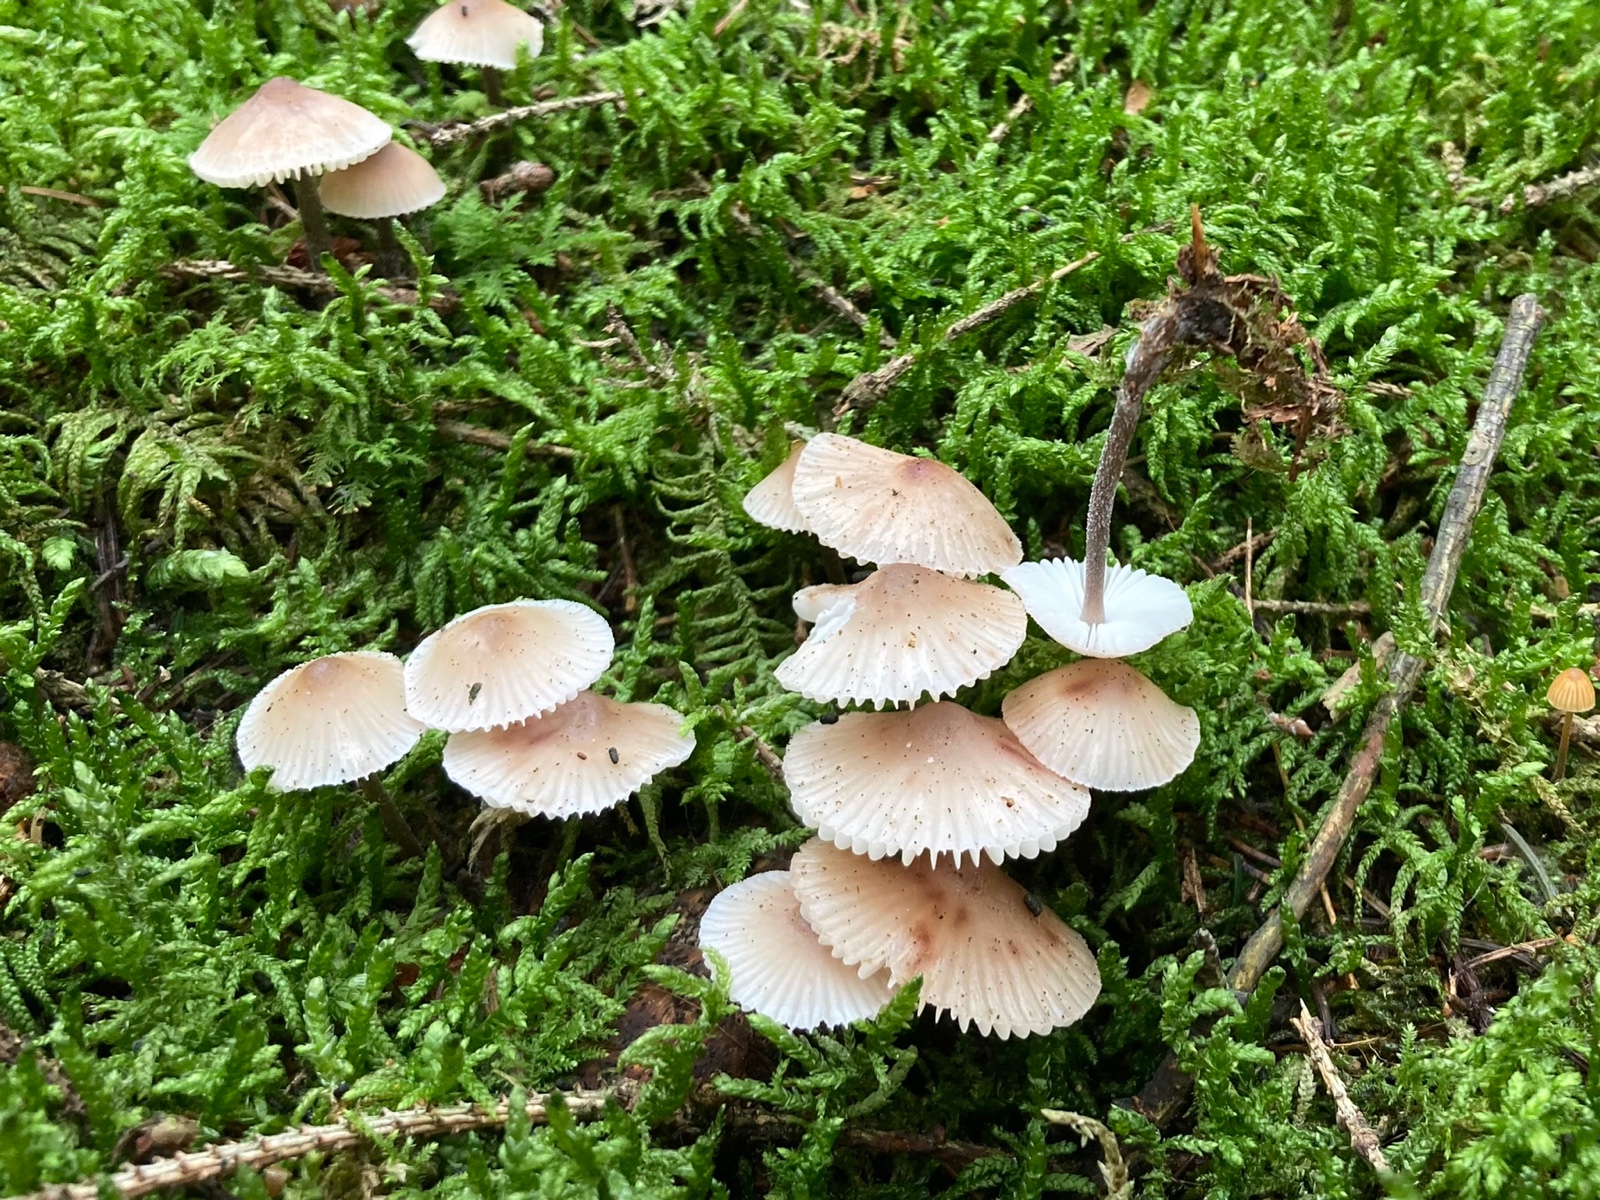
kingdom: Fungi
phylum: Basidiomycota
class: Agaricomycetes
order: Agaricales
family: Mycenaceae
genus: Mycena
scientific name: Mycena zephirus
